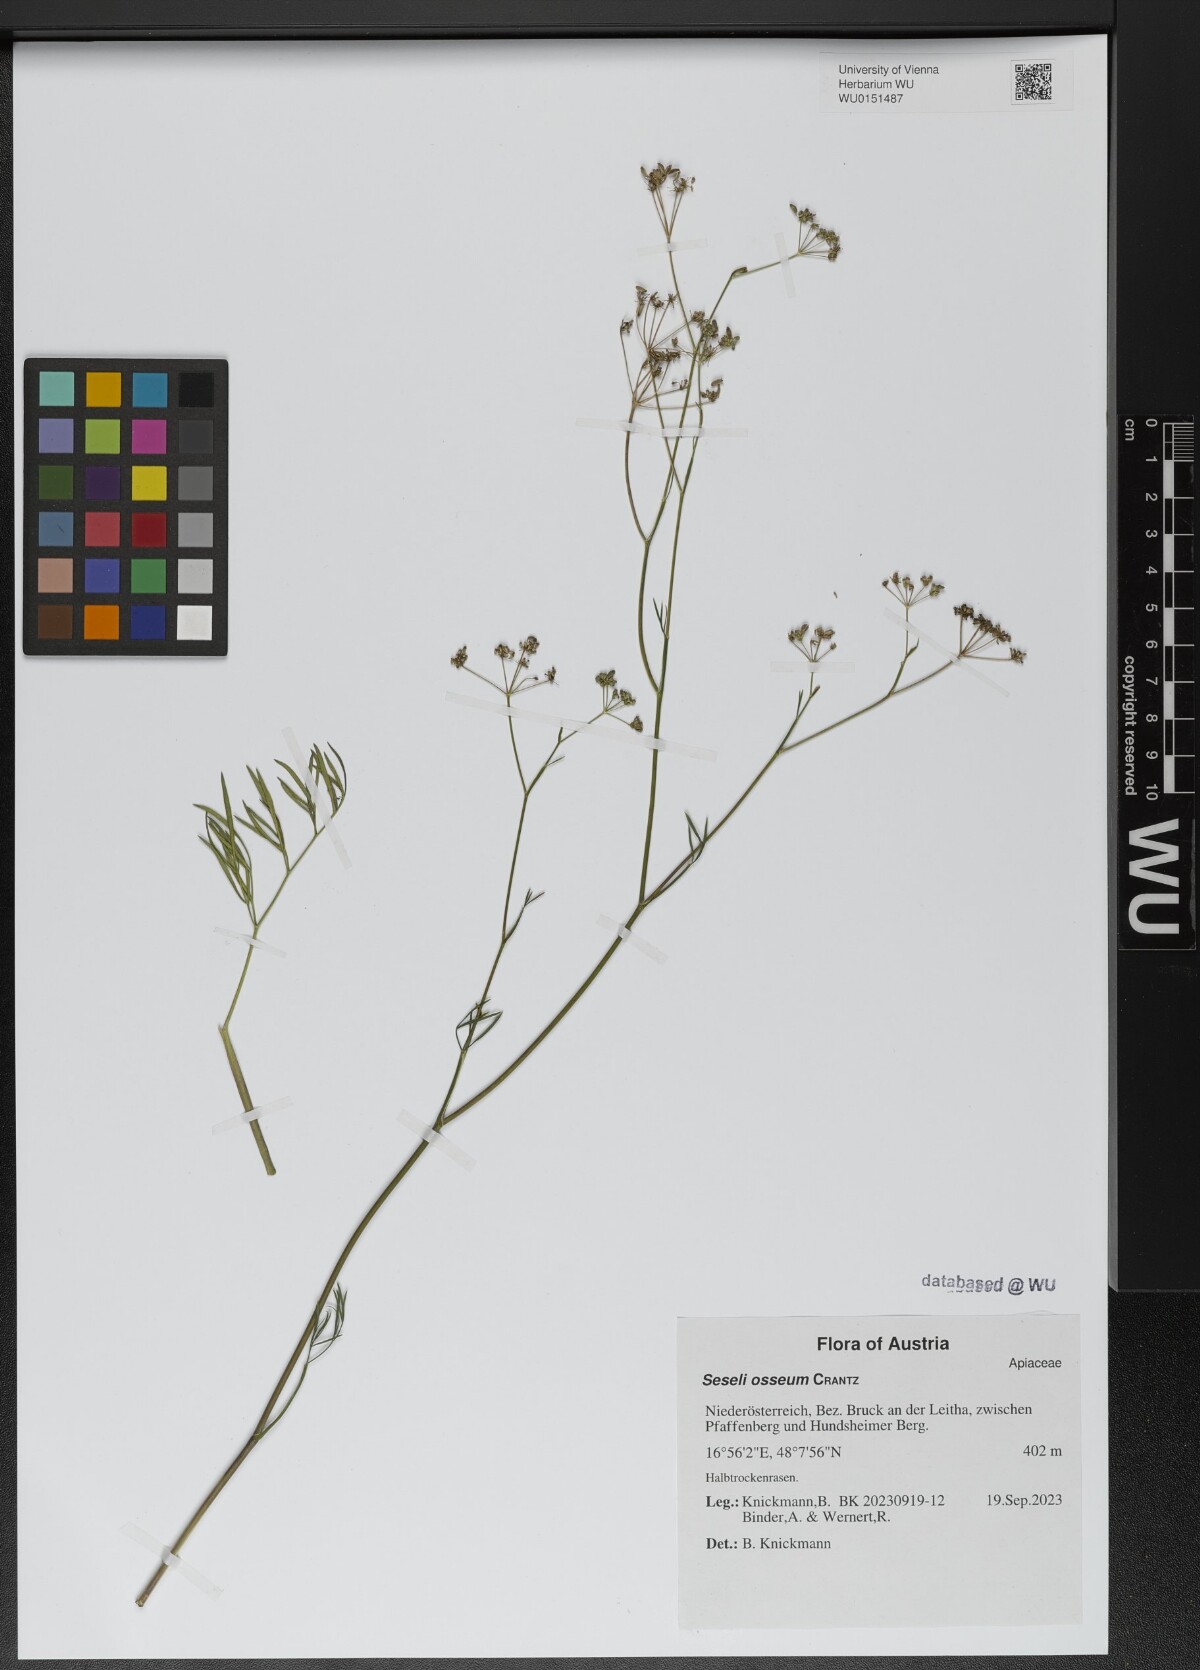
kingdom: Plantae
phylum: Tracheophyta
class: Magnoliopsida
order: Apiales
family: Apiaceae
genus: Seseli
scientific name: Seseli osseum
